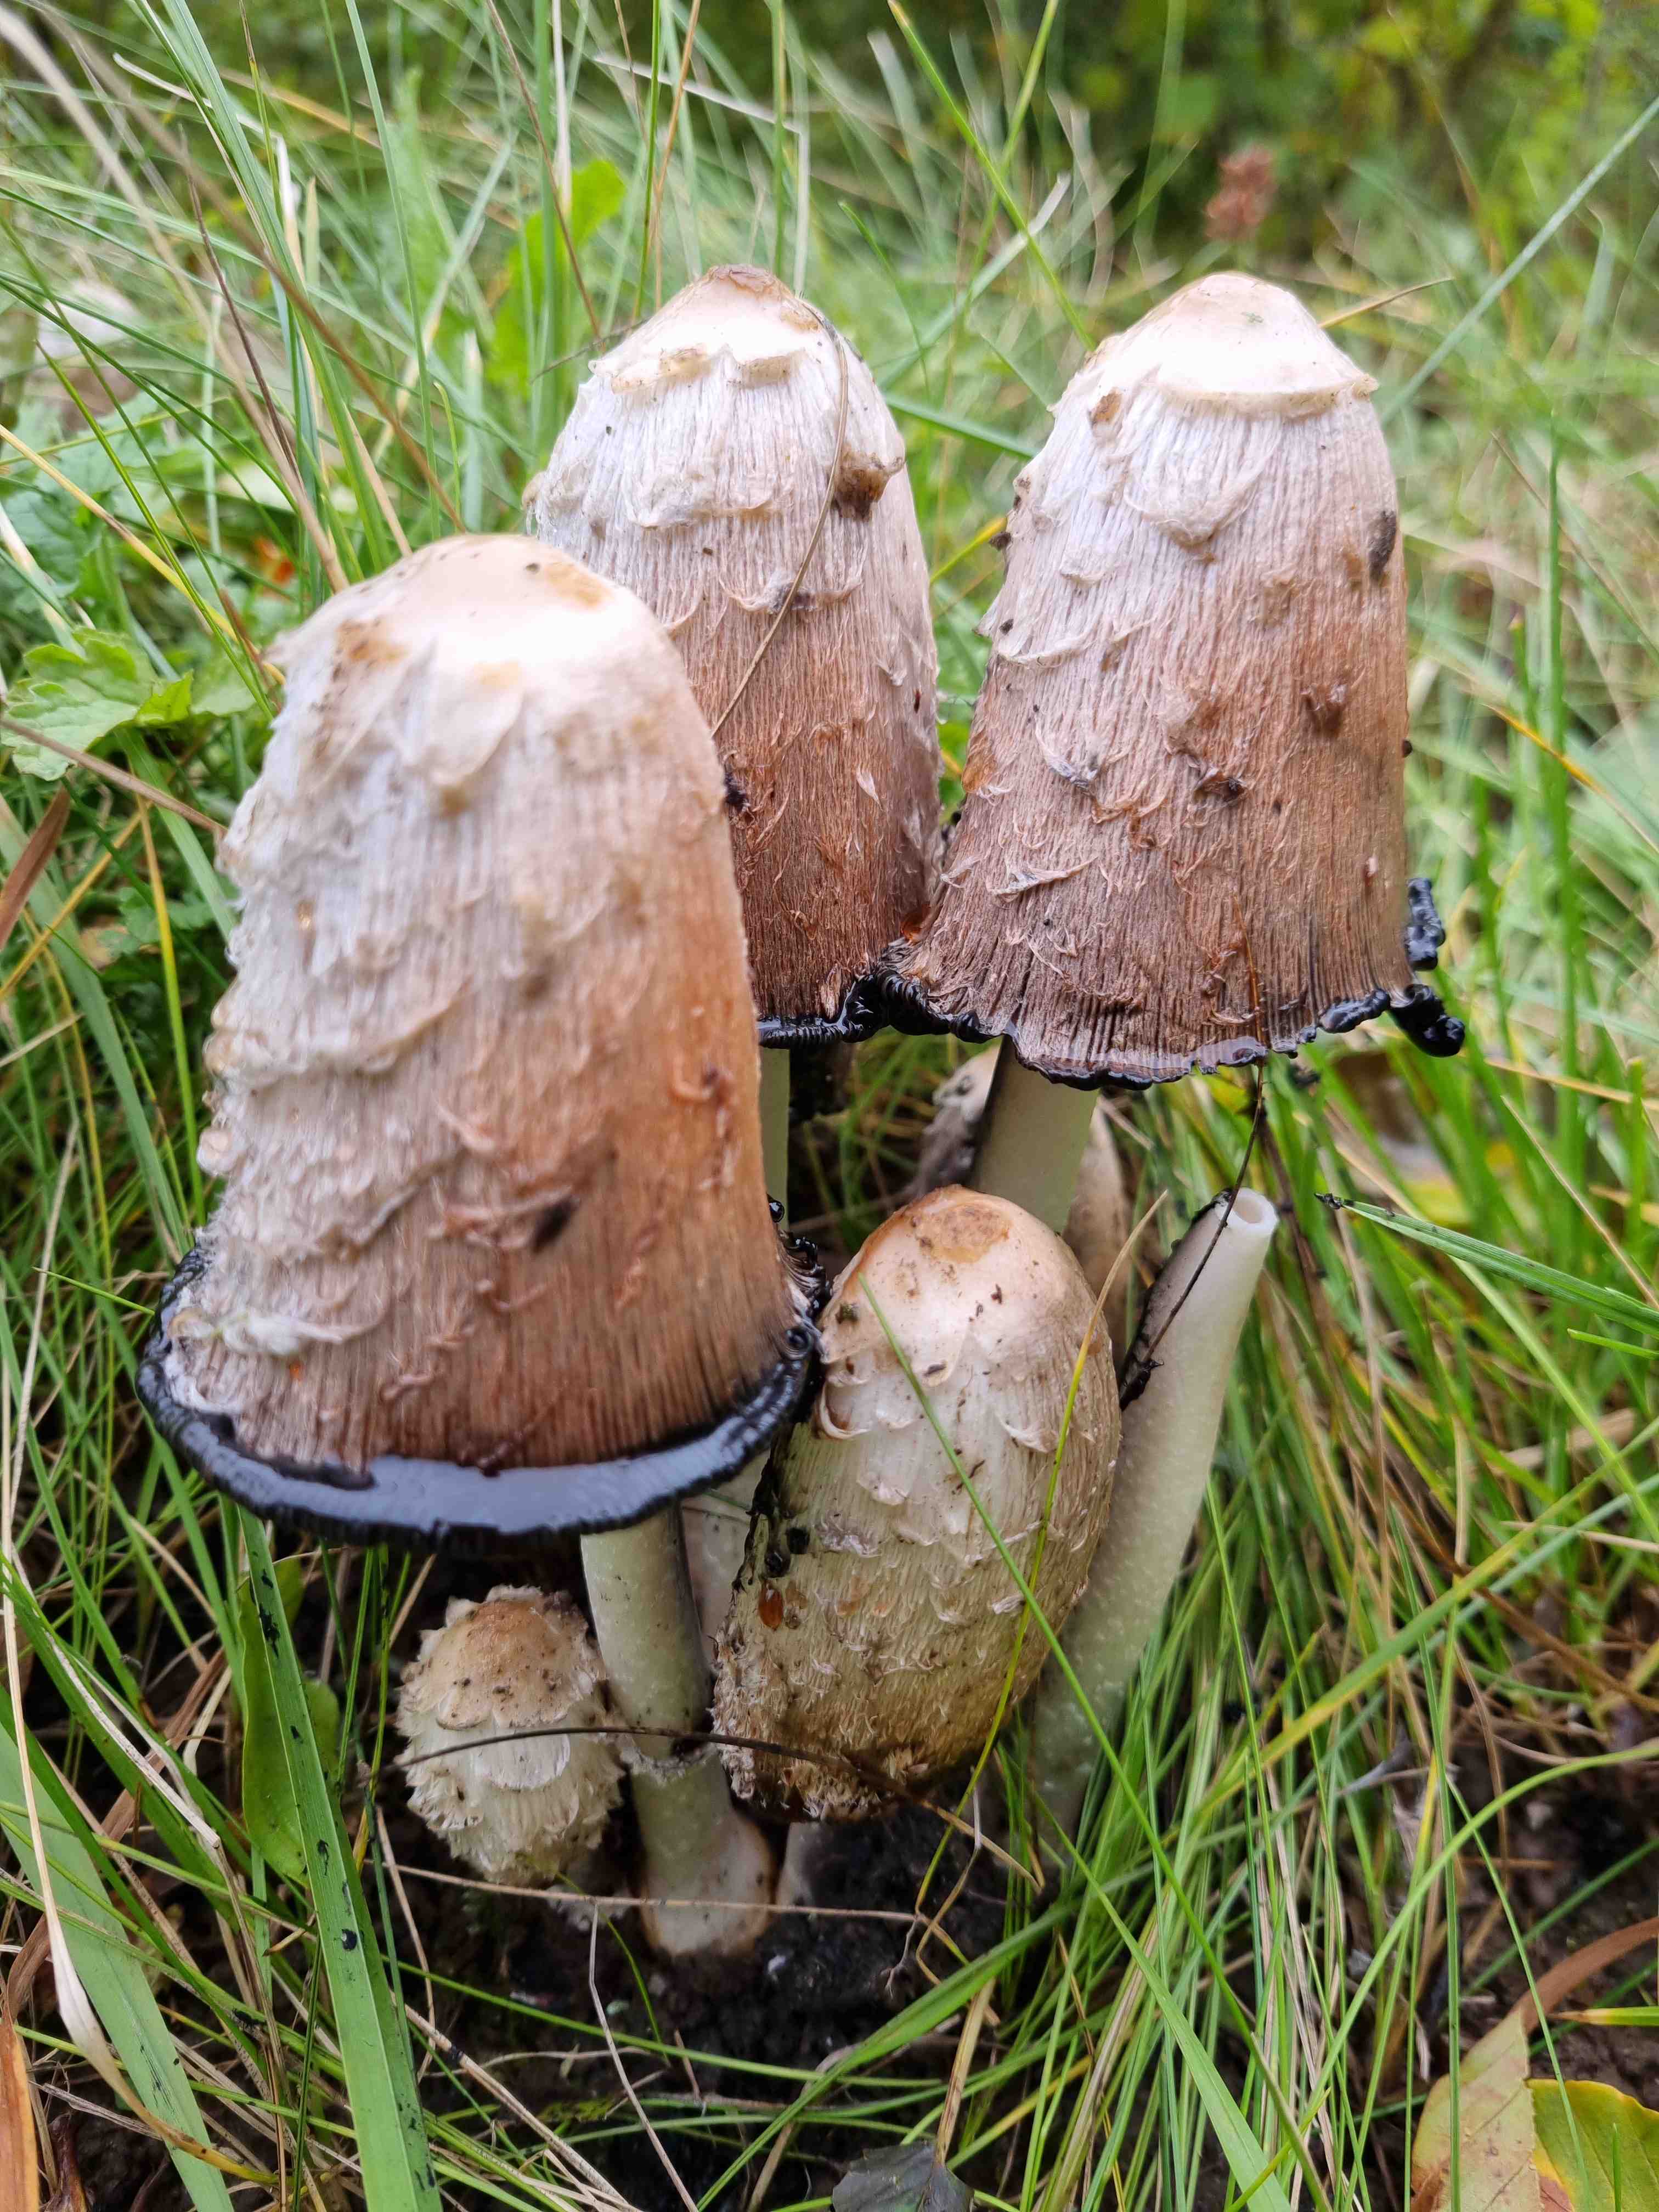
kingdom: Fungi
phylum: Basidiomycota
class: Agaricomycetes
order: Agaricales
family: Agaricaceae
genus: Coprinus
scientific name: Coprinus comatus
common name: stor parykhat
